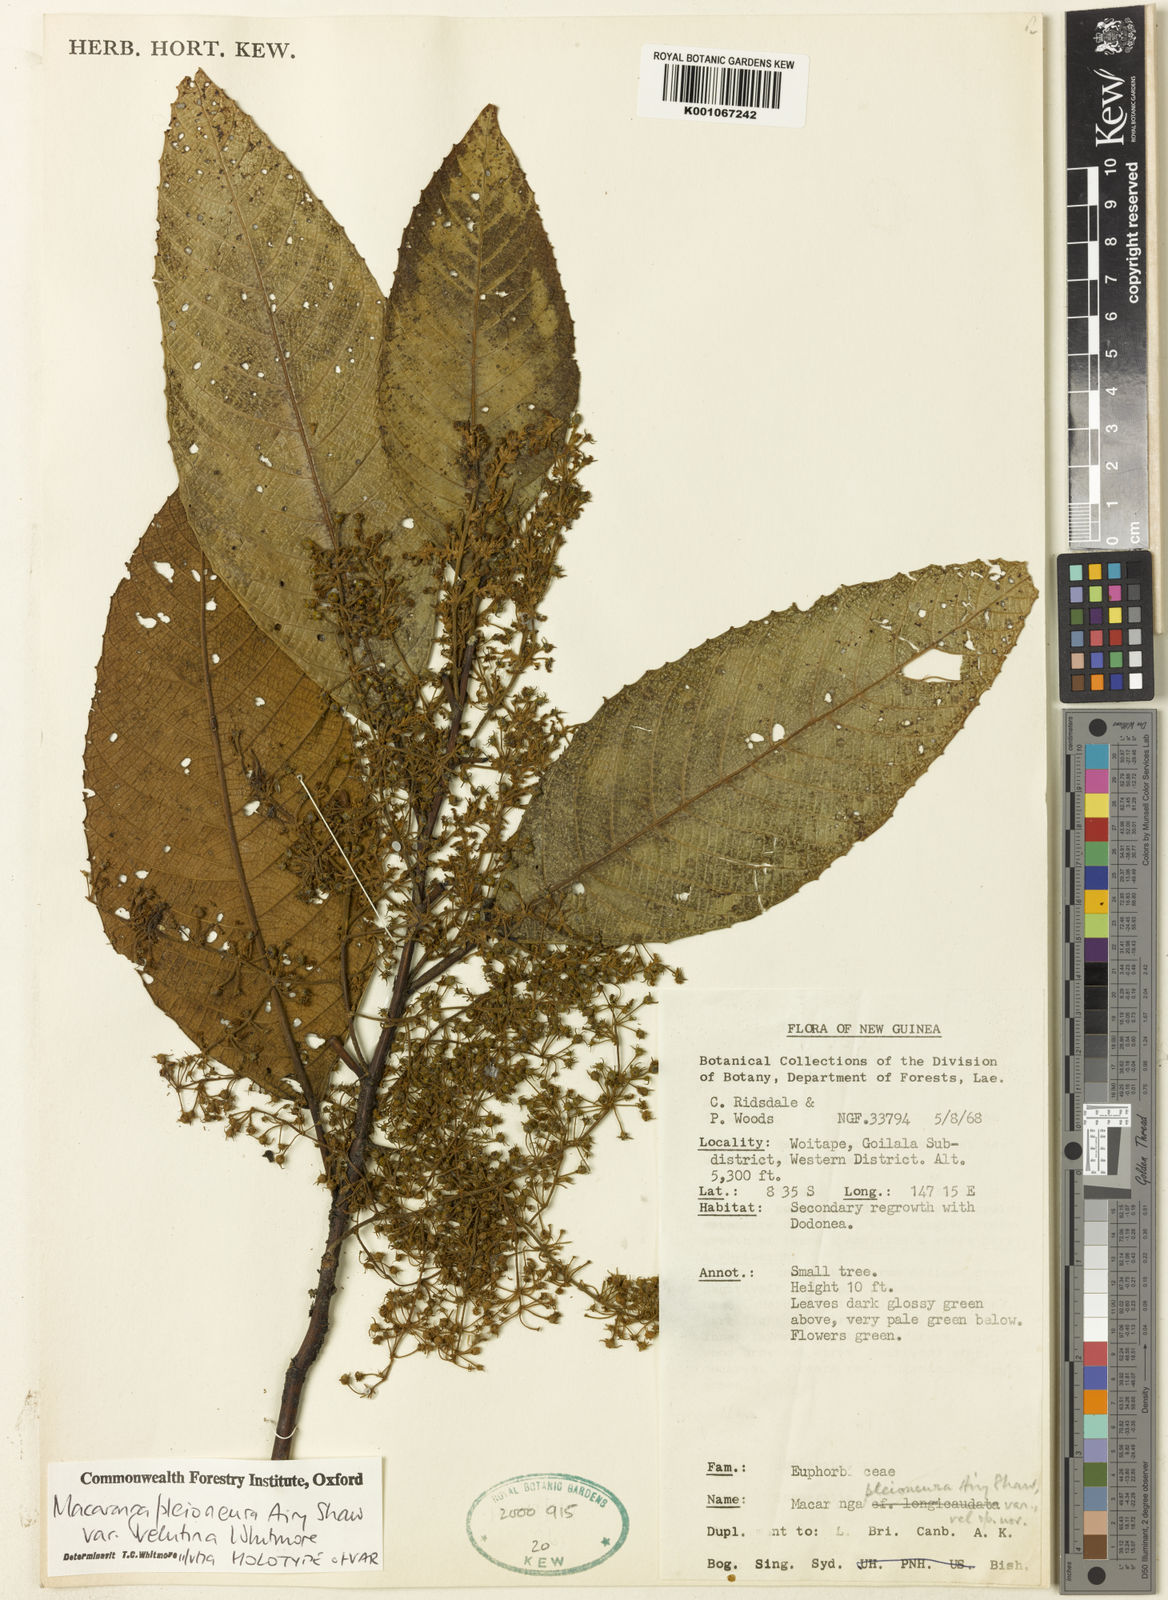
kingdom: Plantae
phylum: Tracheophyta
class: Magnoliopsida
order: Malpighiales
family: Euphorbiaceae
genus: Macaranga
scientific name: Macaranga pleioneura
